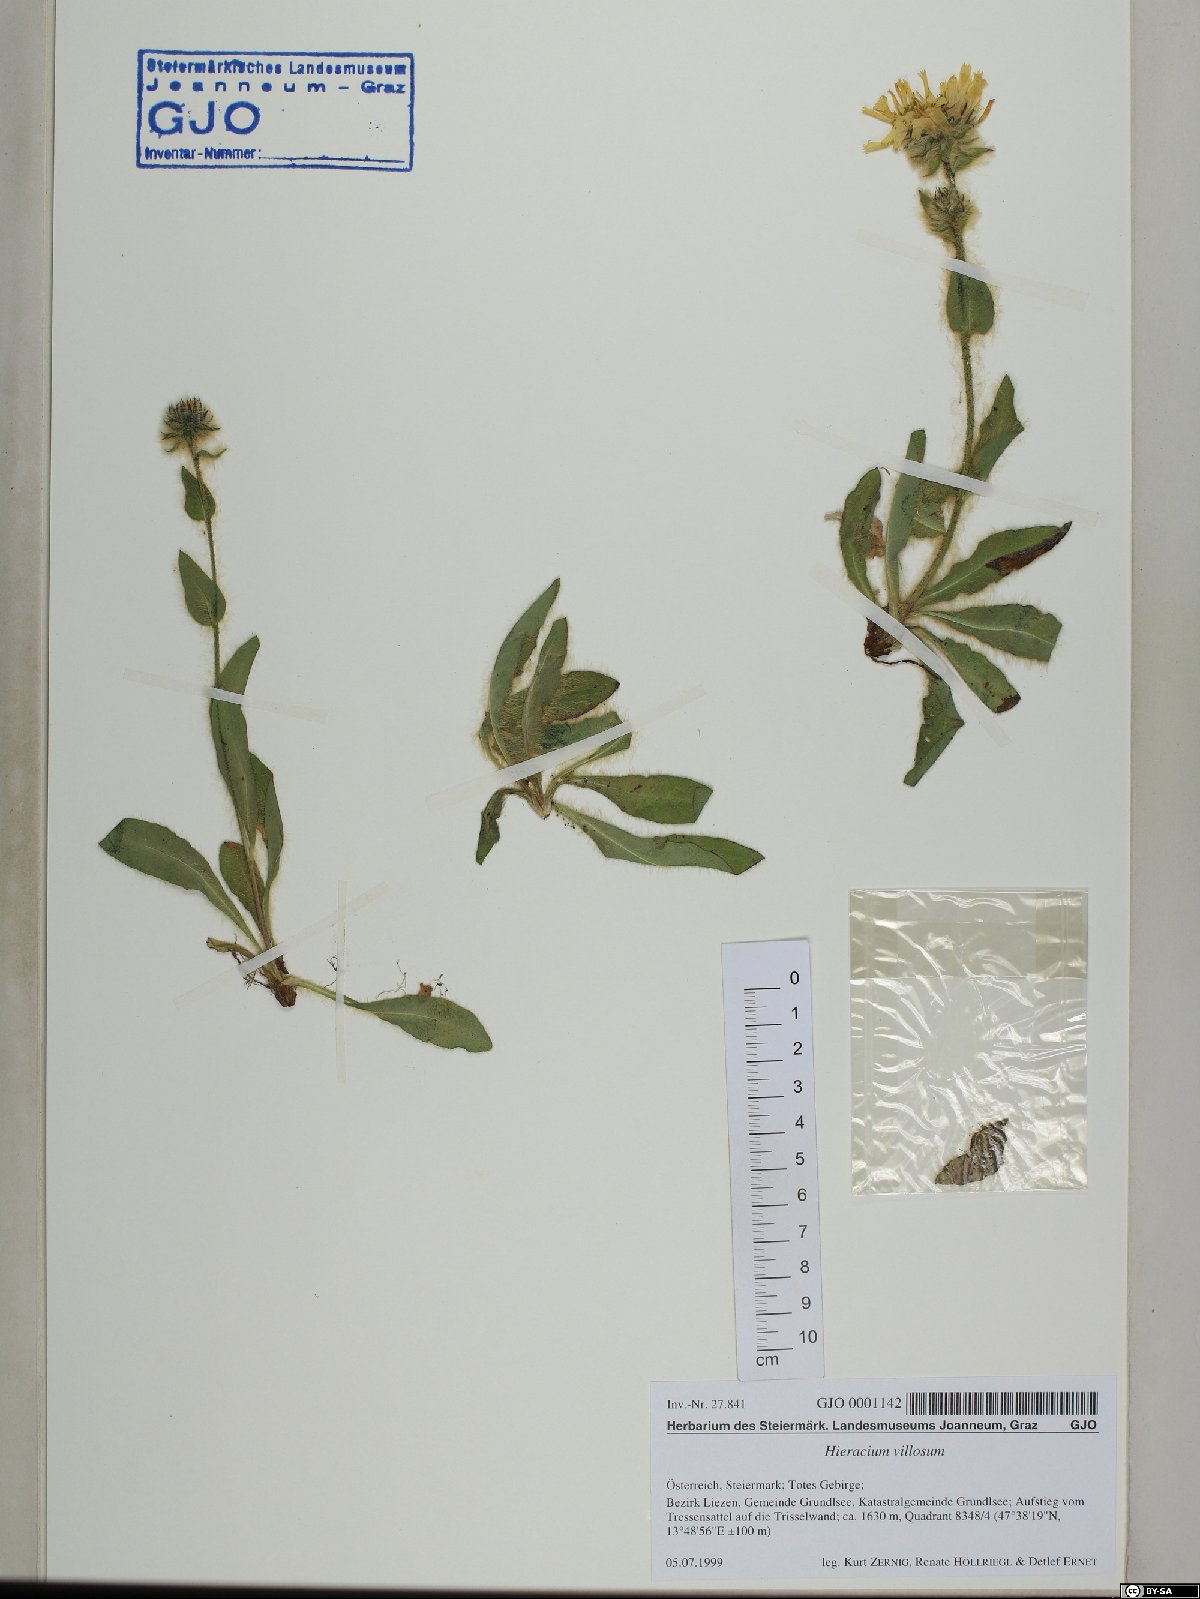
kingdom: Plantae
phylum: Tracheophyta
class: Magnoliopsida
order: Asterales
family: Asteraceae
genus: Hieracium
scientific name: Hieracium villosum
